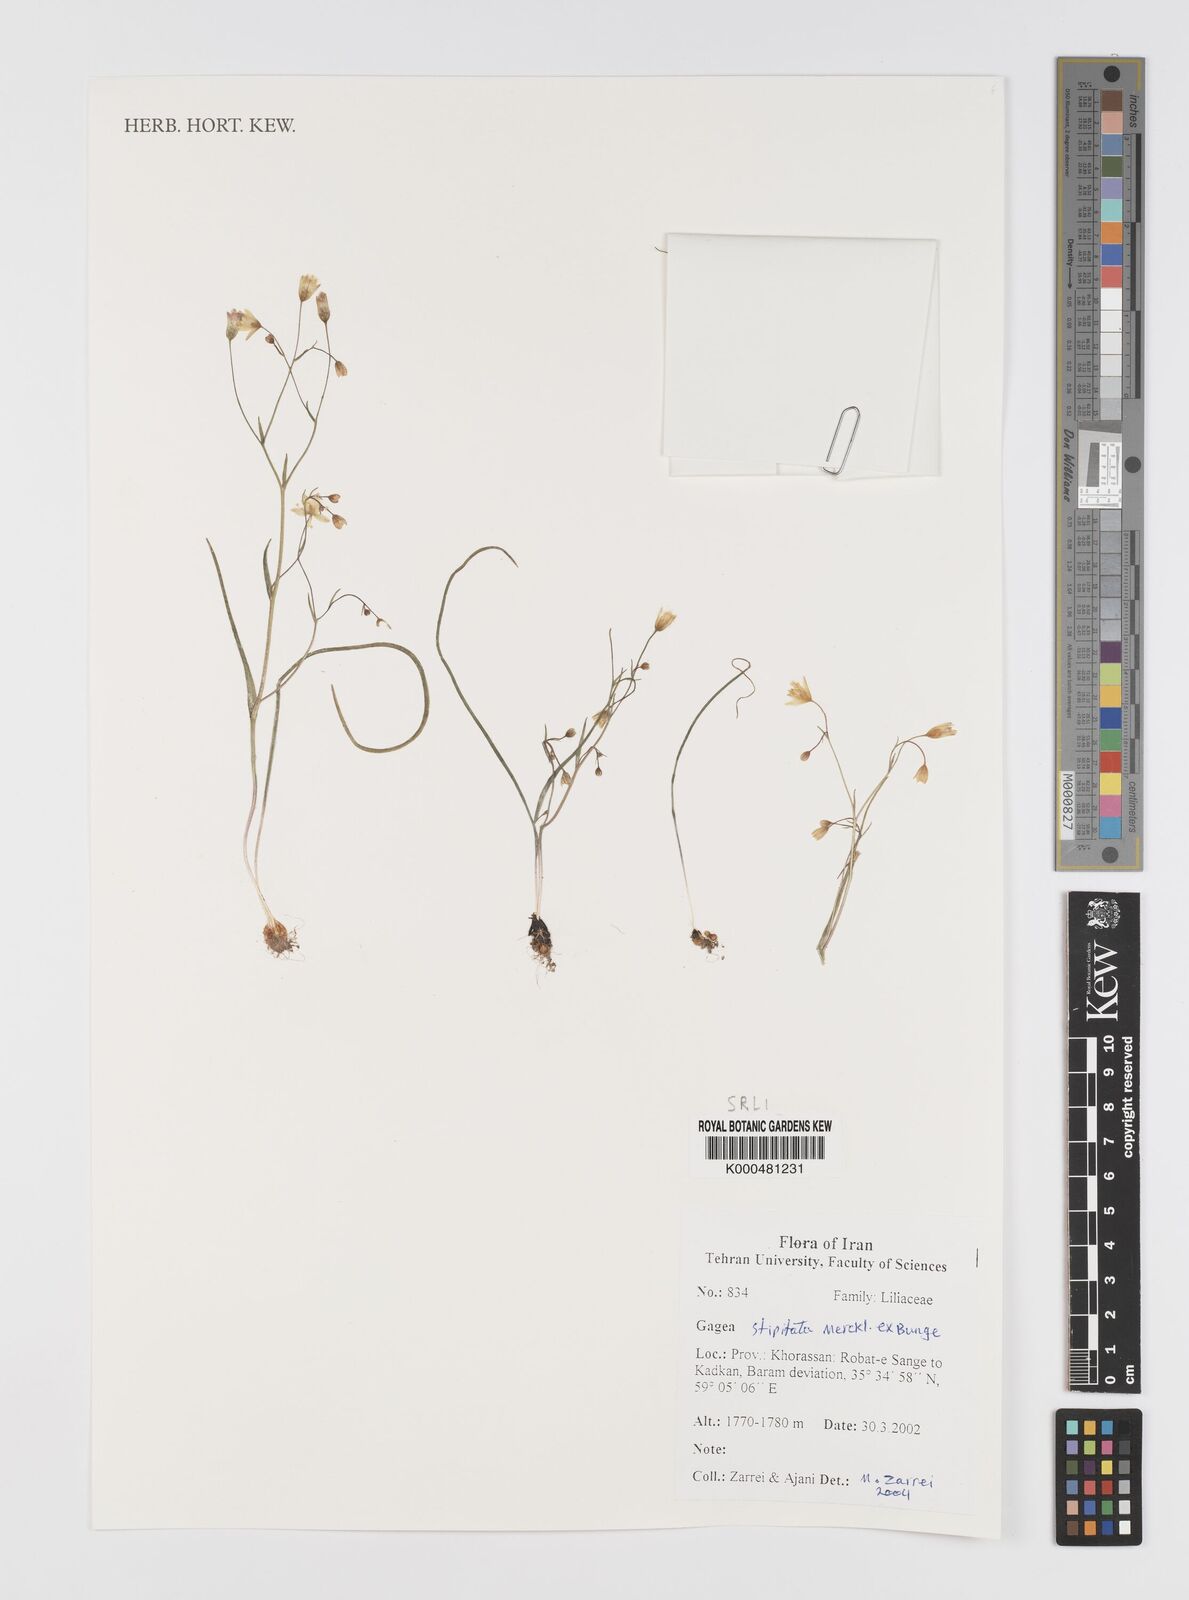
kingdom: Plantae
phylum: Tracheophyta
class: Liliopsida
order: Liliales
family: Liliaceae
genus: Gagea
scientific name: Gagea kunawurensis
